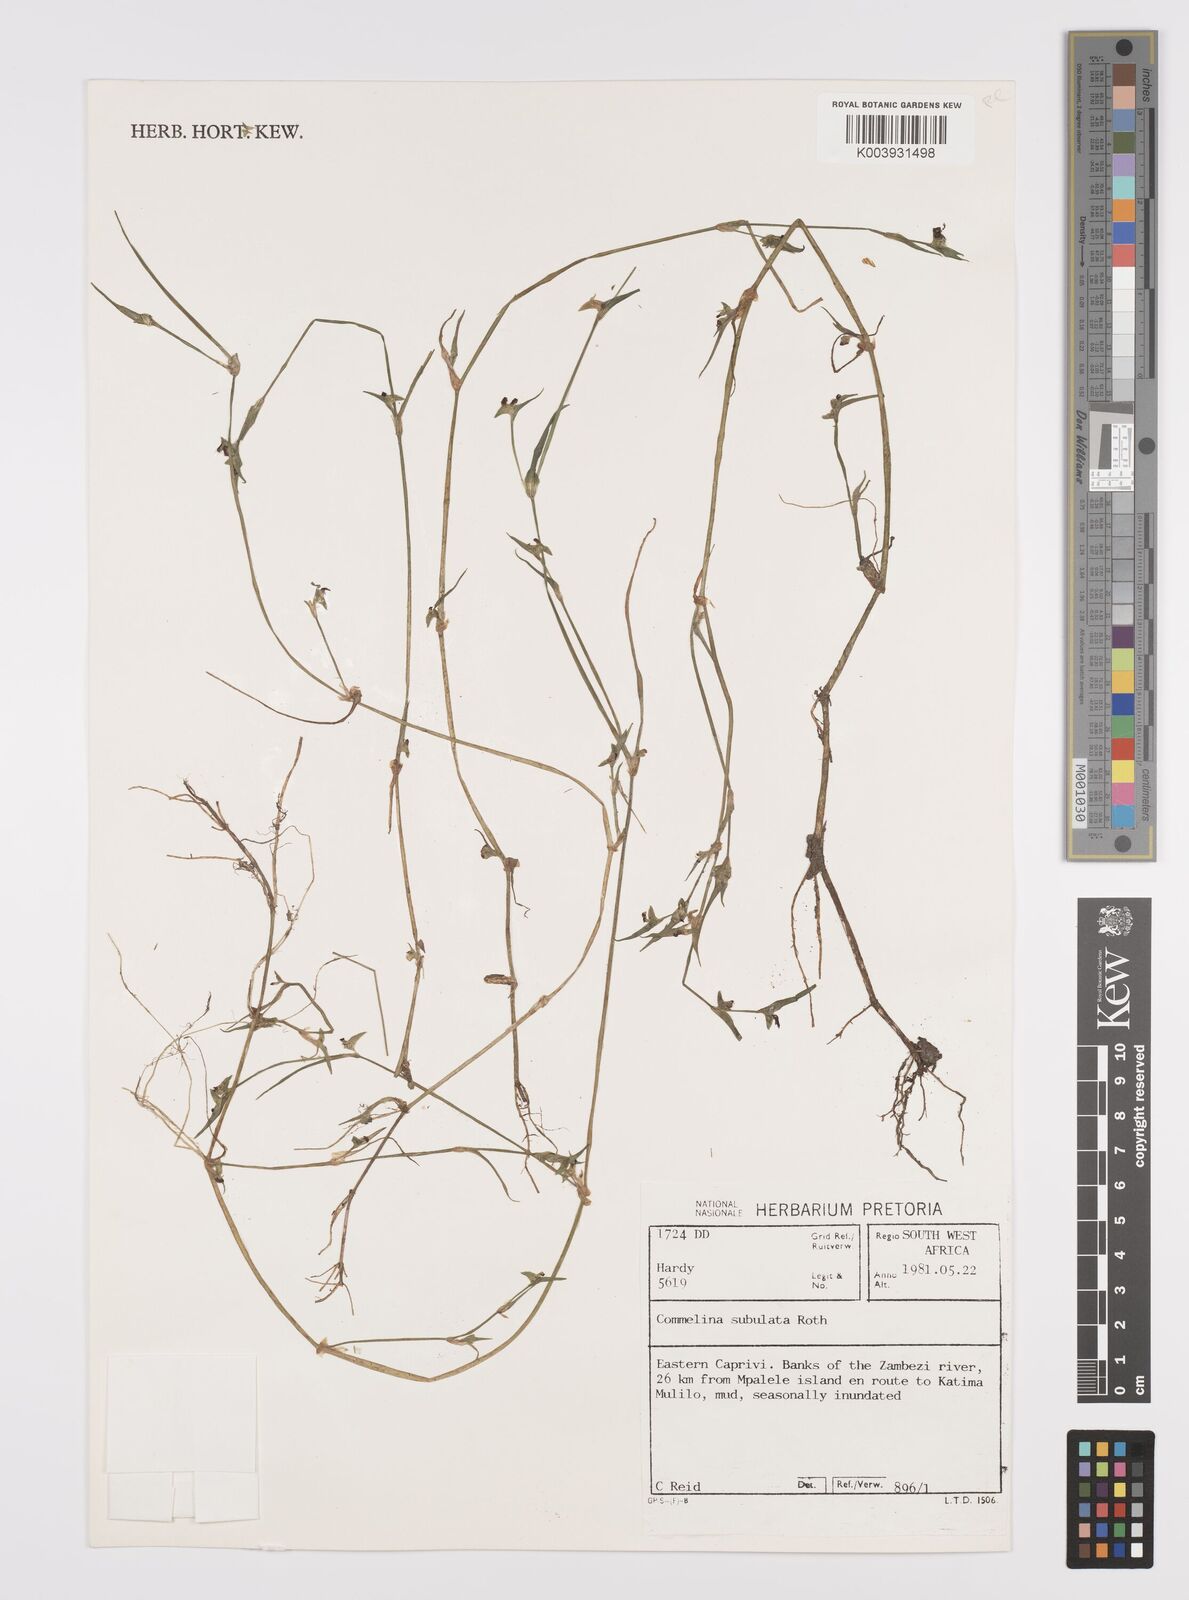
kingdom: Plantae
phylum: Tracheophyta
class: Liliopsida
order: Commelinales
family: Commelinaceae
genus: Commelina
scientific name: Commelina subulata
